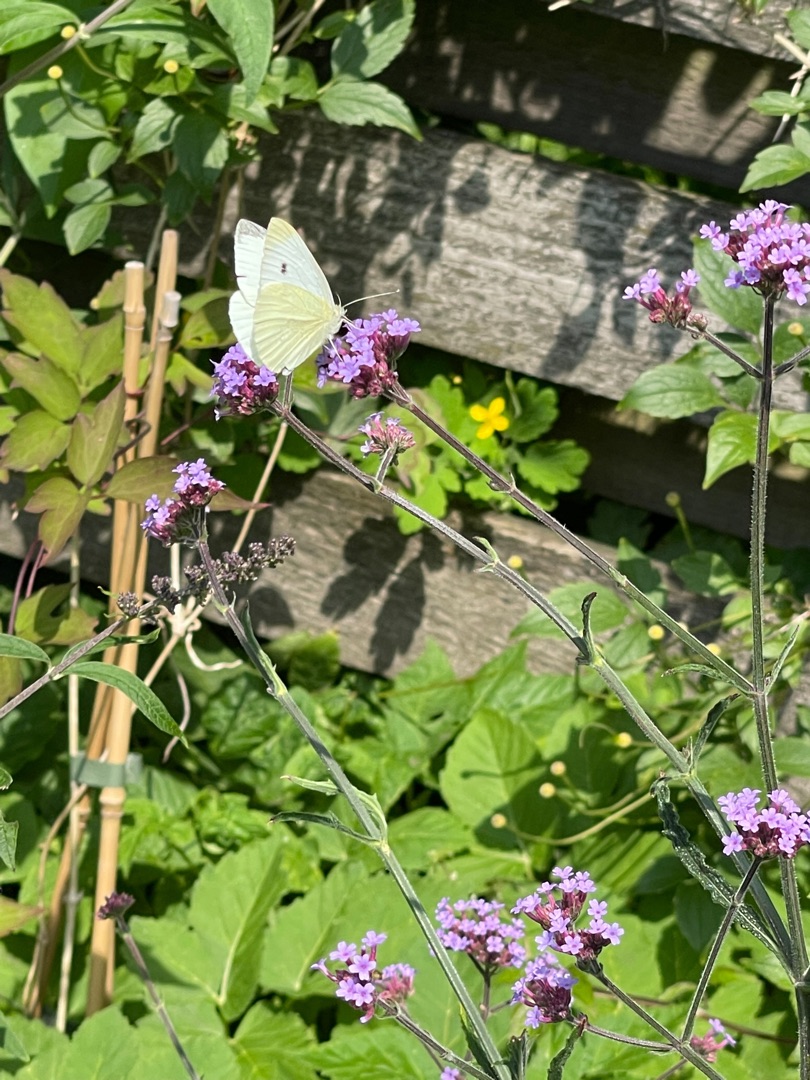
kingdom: Animalia
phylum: Arthropoda
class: Insecta
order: Lepidoptera
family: Pieridae
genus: Pieris
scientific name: Pieris rapae
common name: Lille kålsommerfugl
